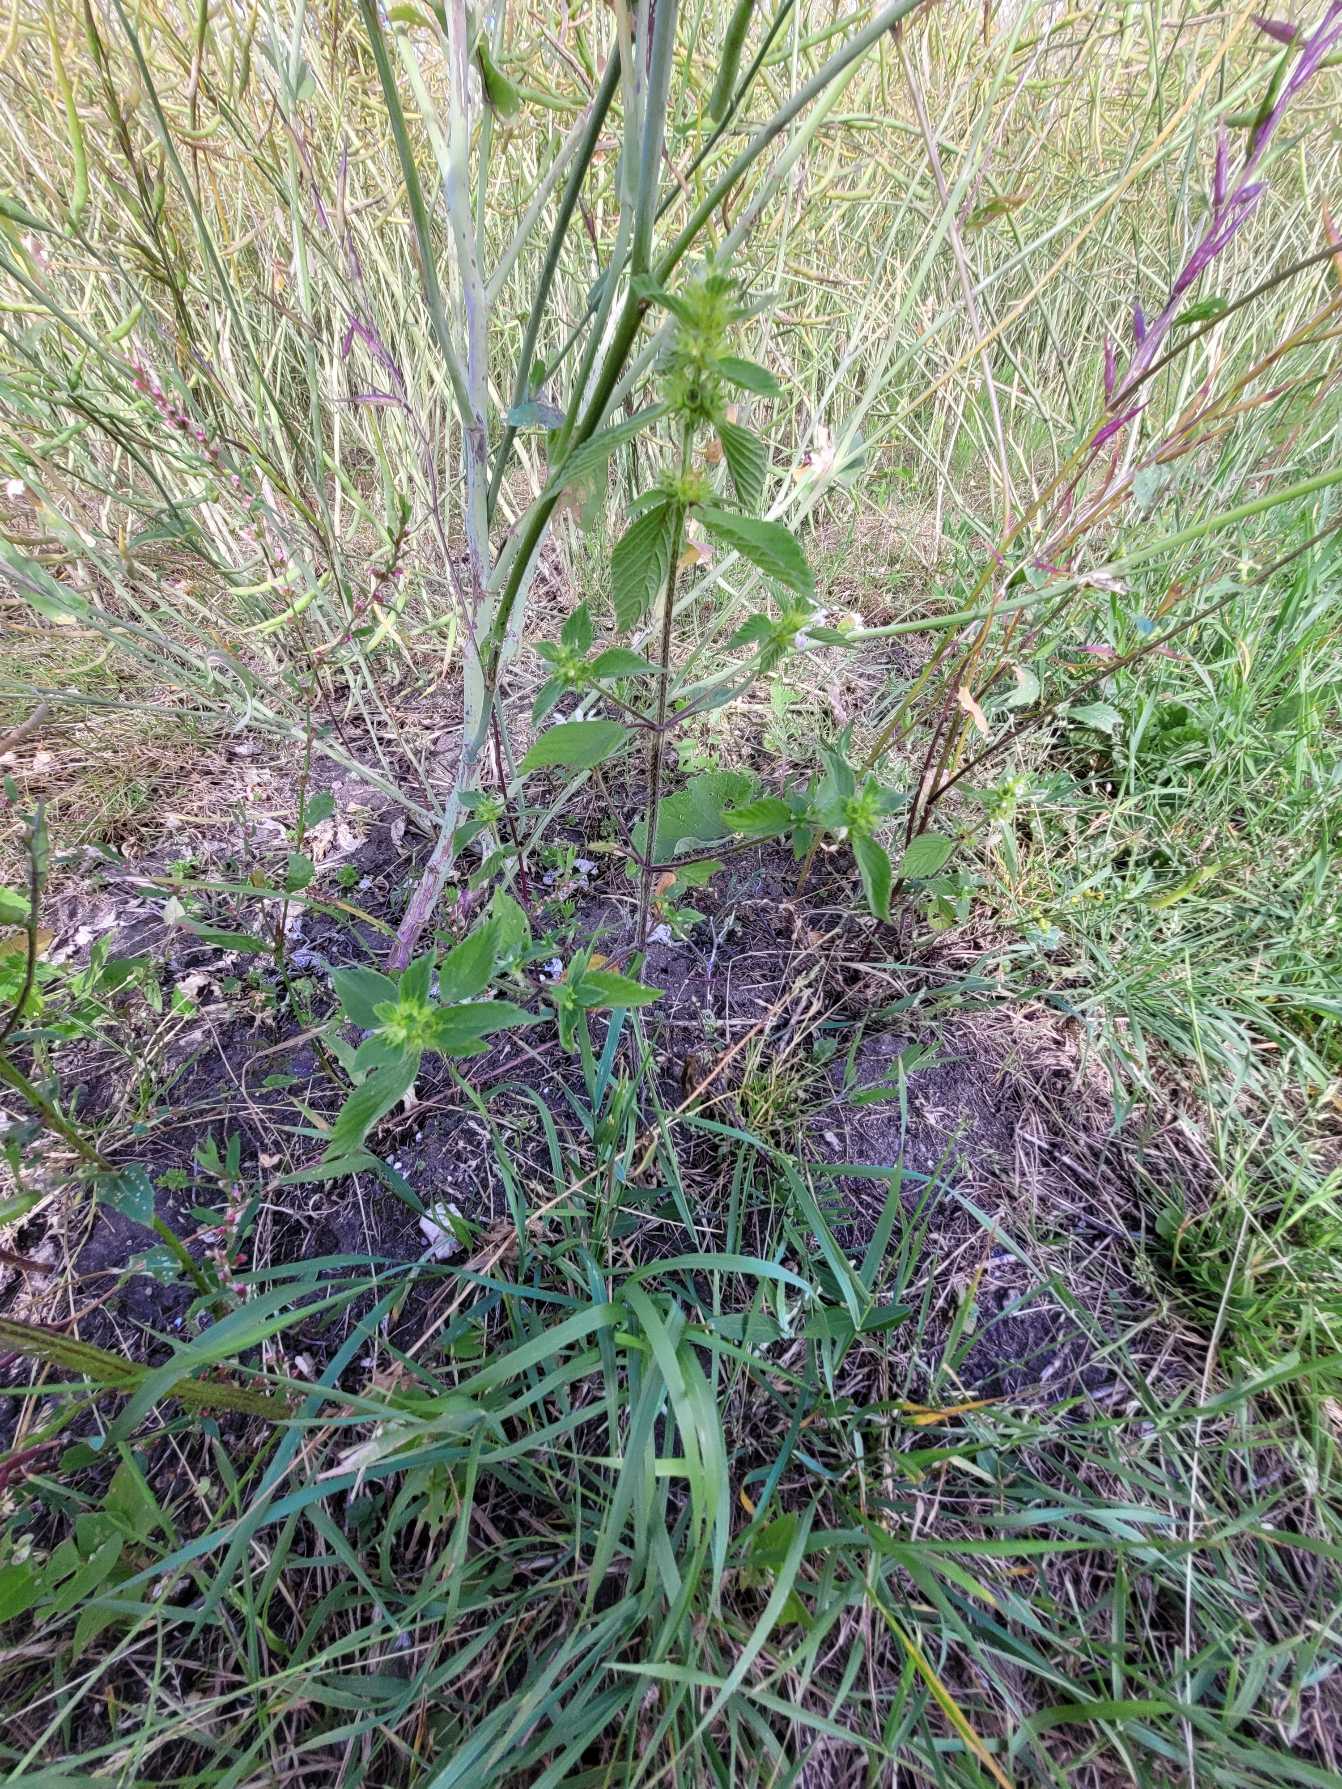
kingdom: Plantae
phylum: Tracheophyta
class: Magnoliopsida
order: Lamiales
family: Lamiaceae
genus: Galeopsis
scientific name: Galeopsis
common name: Hanekroslægten
